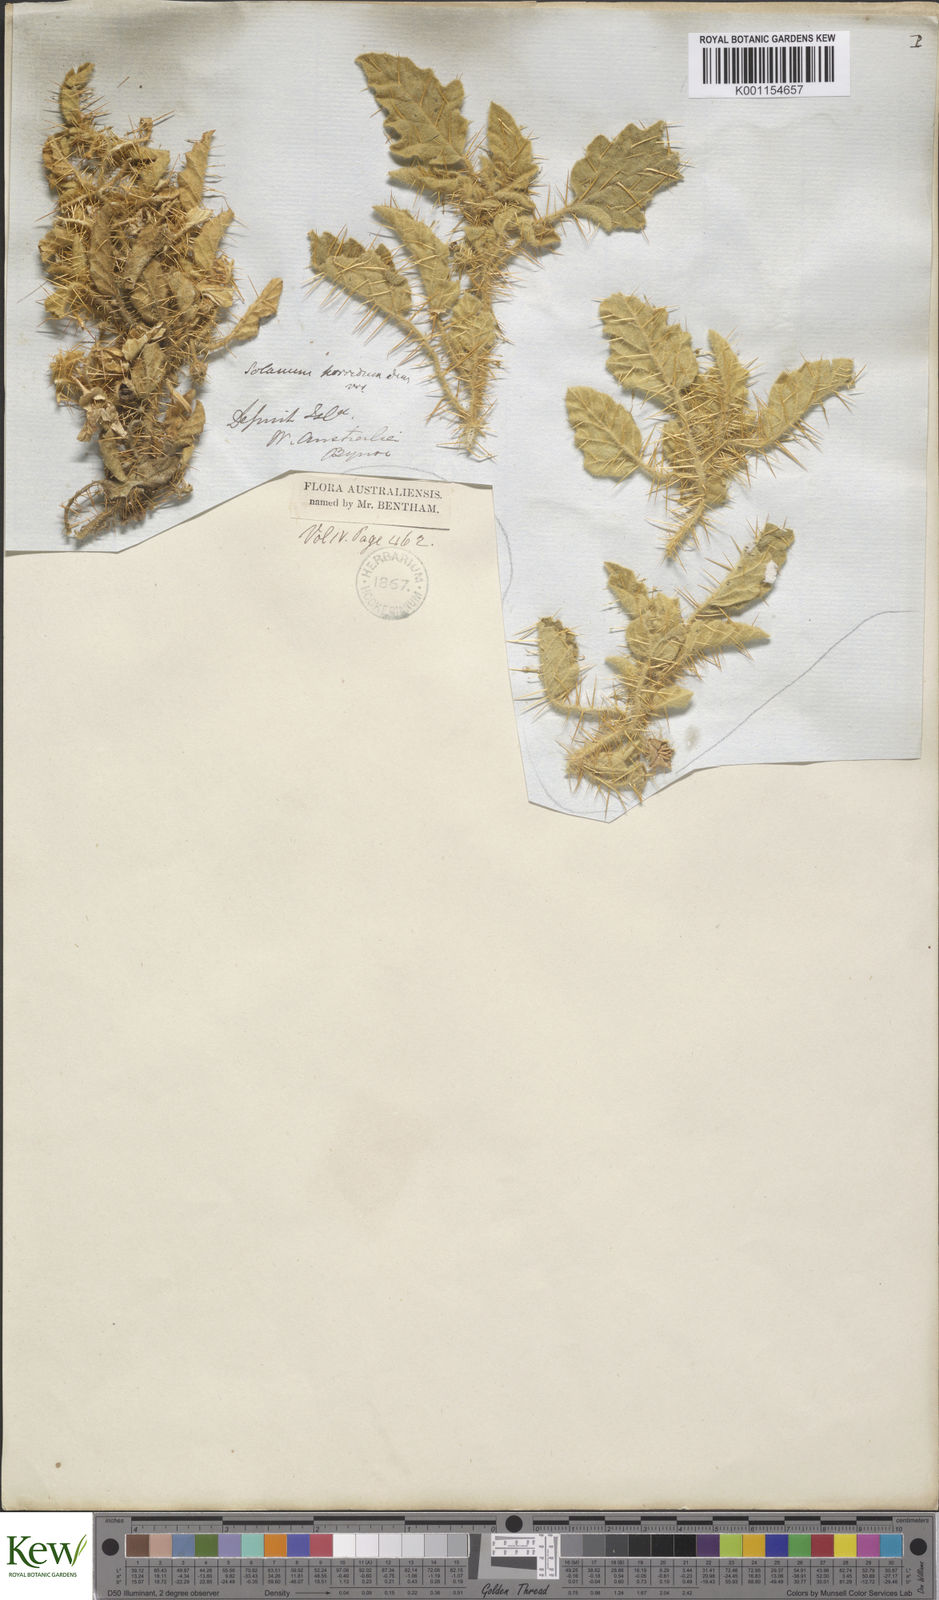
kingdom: Plantae
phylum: Tracheophyta
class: Magnoliopsida
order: Solanales
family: Solanaceae
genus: Solanum
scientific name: Solanum horridum
